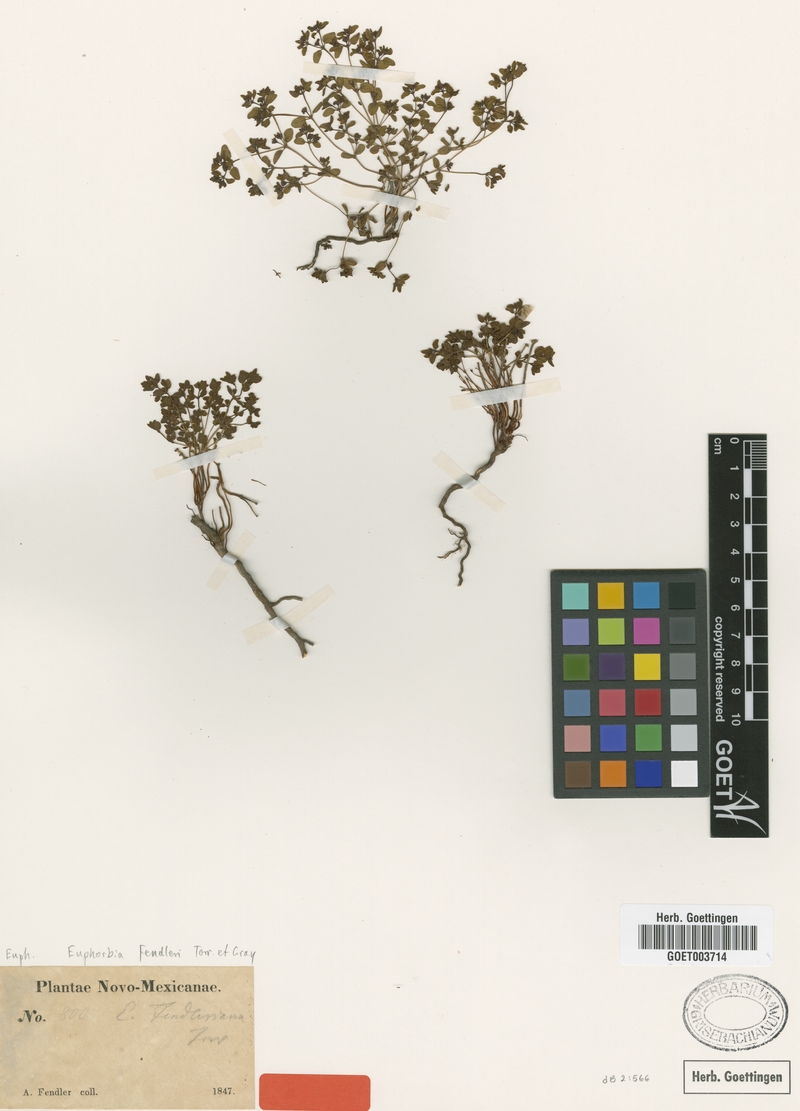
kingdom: Plantae
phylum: Tracheophyta
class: Magnoliopsida
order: Malpighiales
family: Euphorbiaceae
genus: Euphorbia
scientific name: Euphorbia fendleri
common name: Fendler's euphorbia
